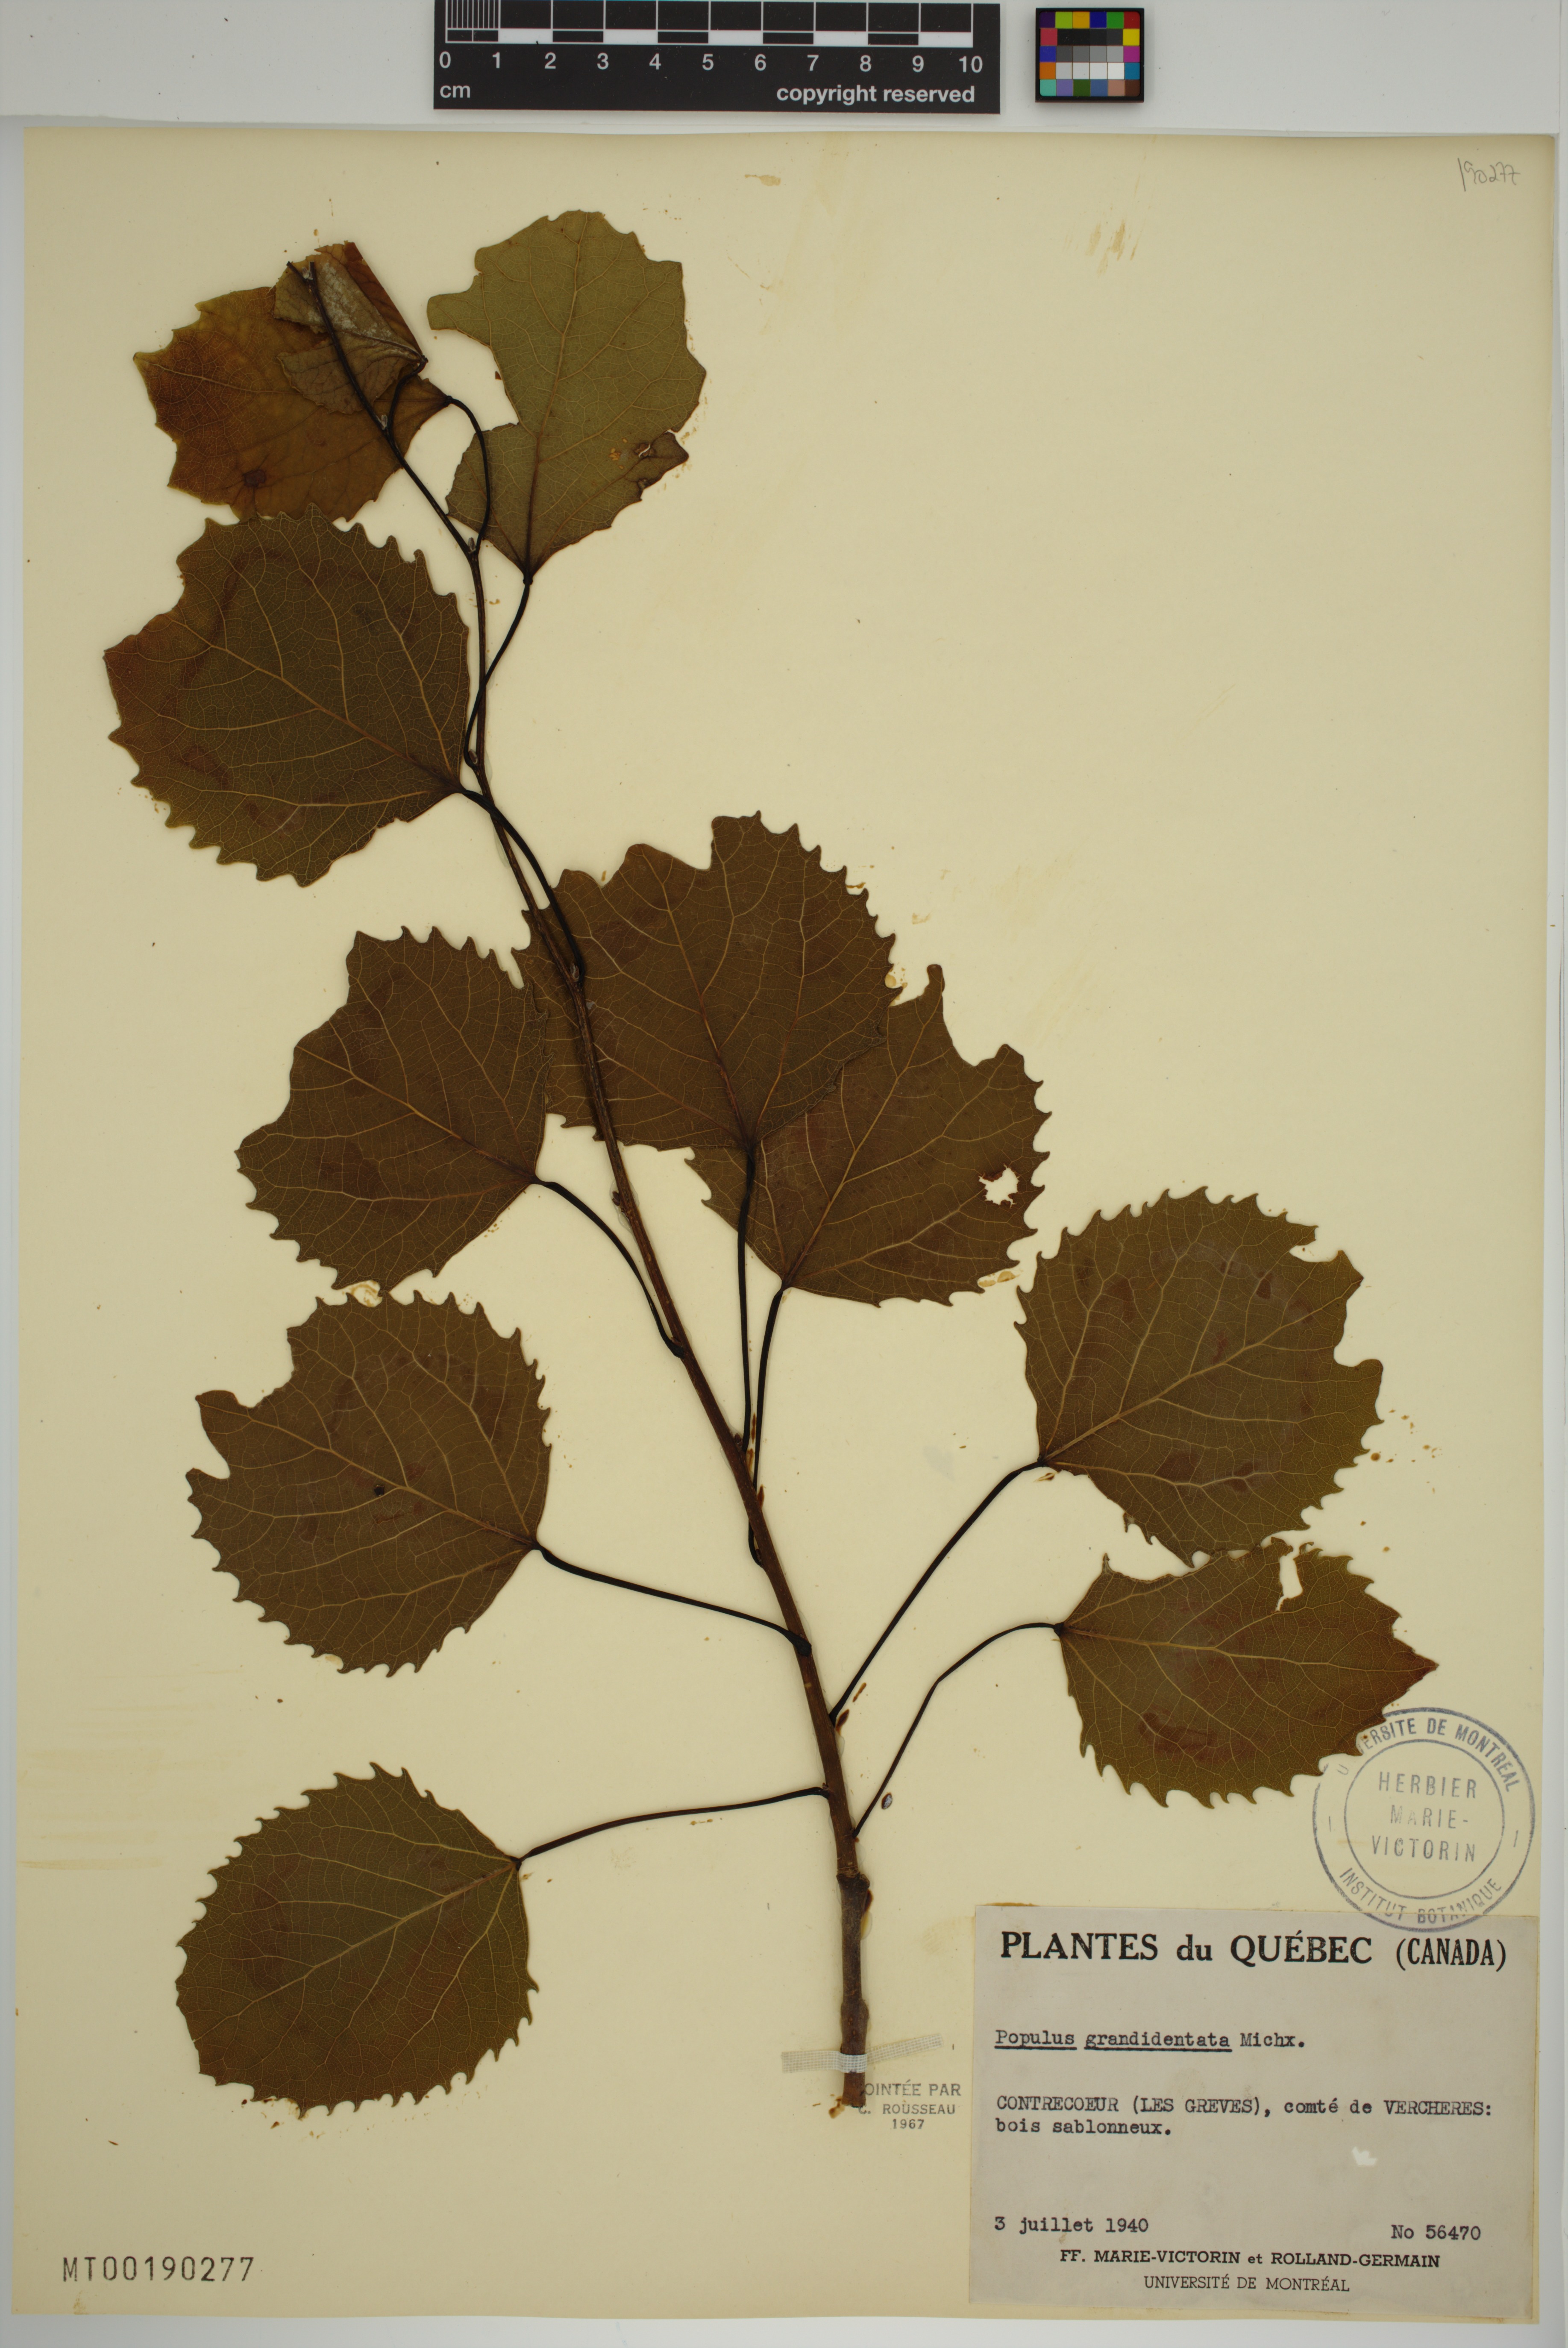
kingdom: Plantae
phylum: Tracheophyta
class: Magnoliopsida
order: Malpighiales
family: Salicaceae
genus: Populus
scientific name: Populus grandidentata
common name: Bigtooth aspen
